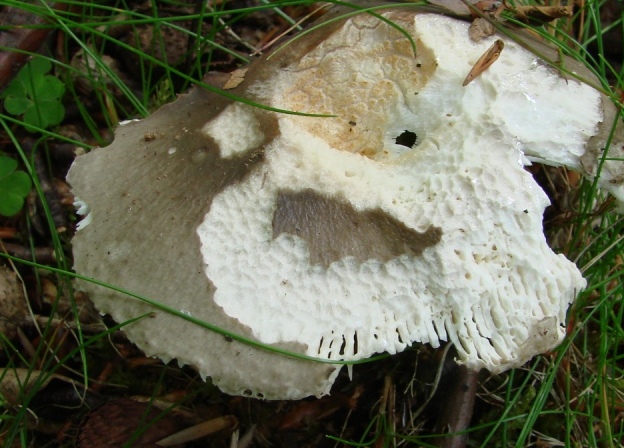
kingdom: Fungi
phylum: Basidiomycota
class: Agaricomycetes
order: Russulales
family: Russulaceae
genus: Russula
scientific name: Russula cyanoxantha
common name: broget skørhat
